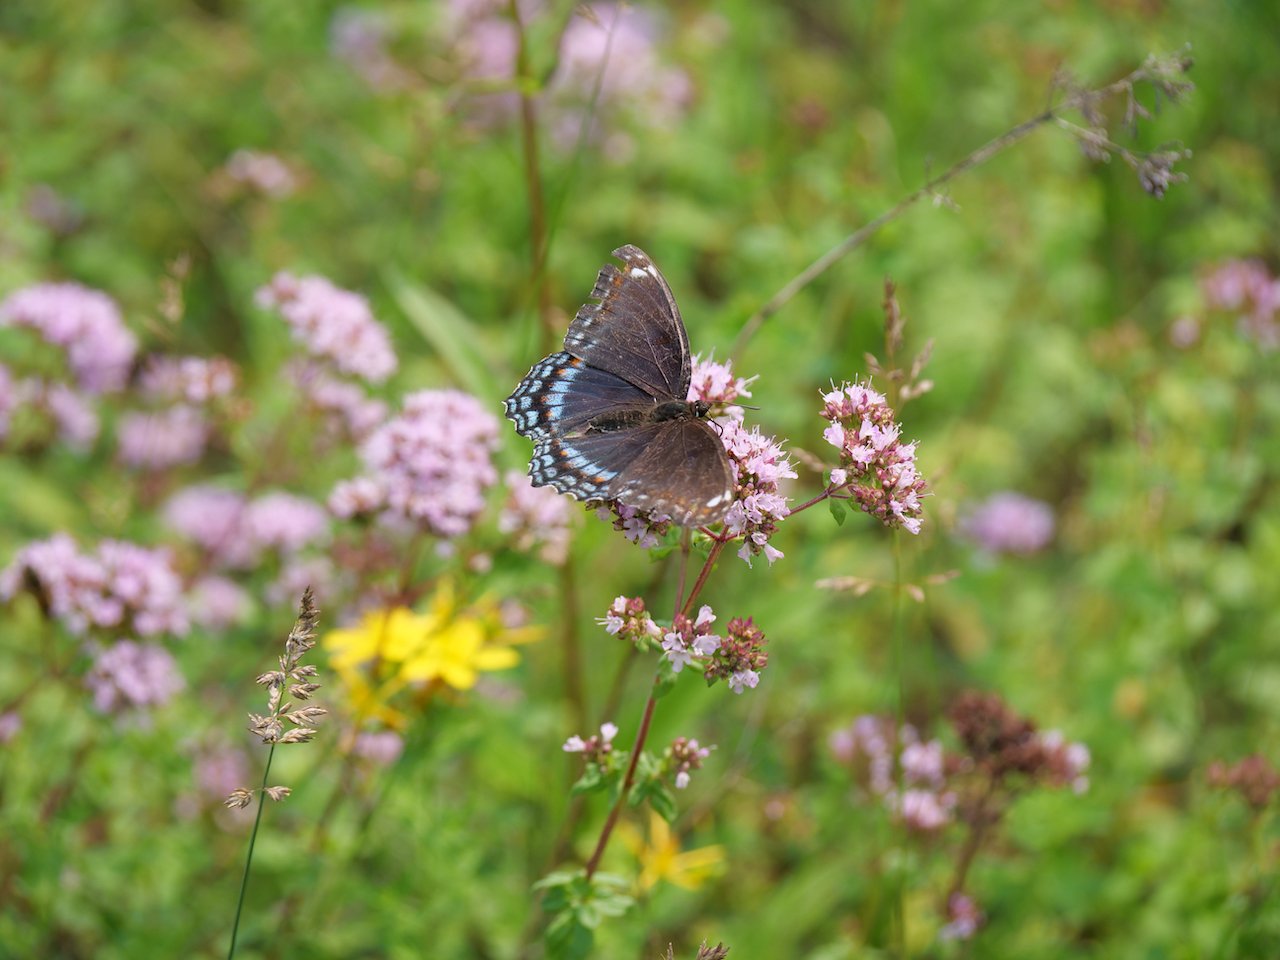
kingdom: Animalia
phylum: Arthropoda
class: Insecta
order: Lepidoptera
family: Nymphalidae
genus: Limenitis
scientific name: Limenitis arthemis
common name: Red-spotted Admiral
